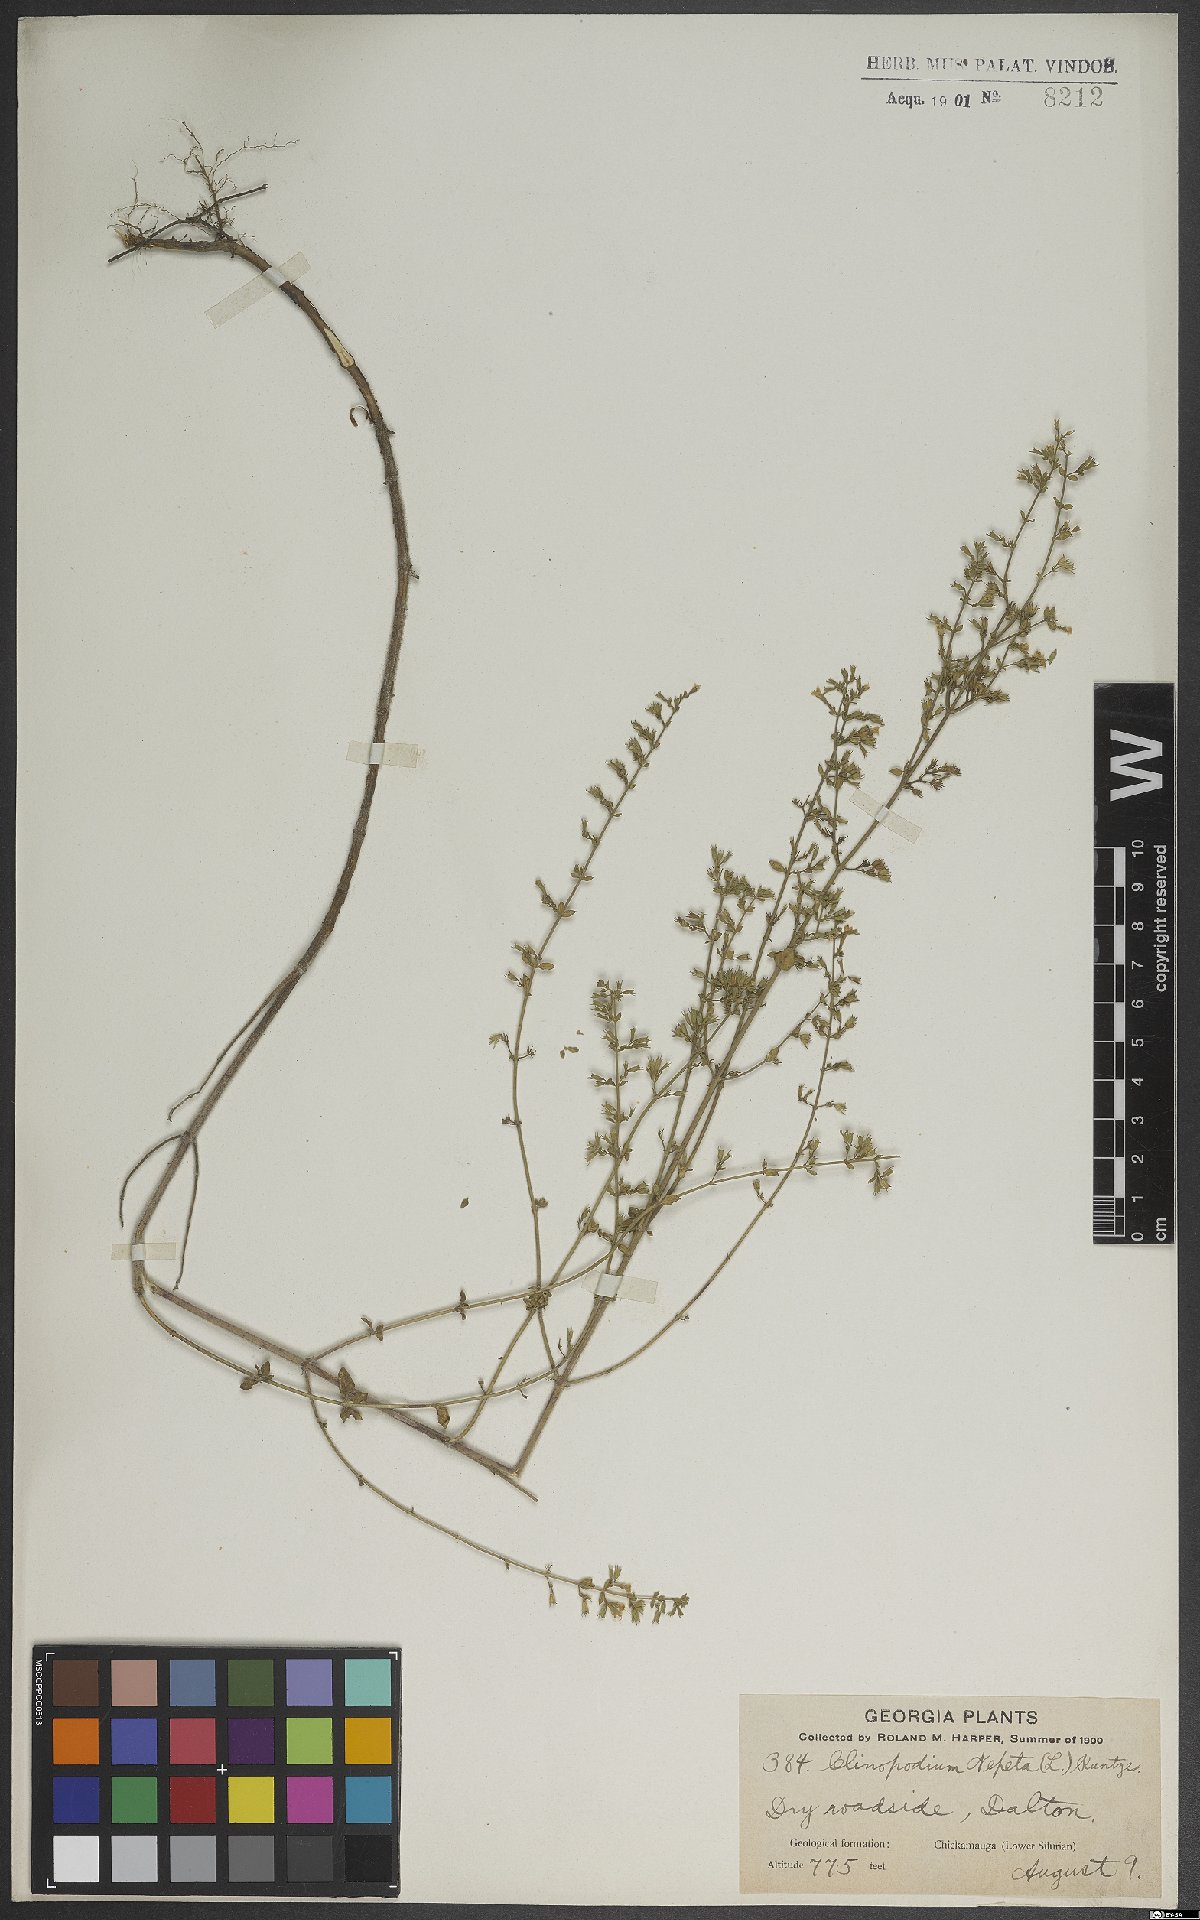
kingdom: Plantae
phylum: Tracheophyta
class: Magnoliopsida
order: Lamiales
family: Lamiaceae
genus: Clinopodium
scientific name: Clinopodium nepeta
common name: Lesser calamint
